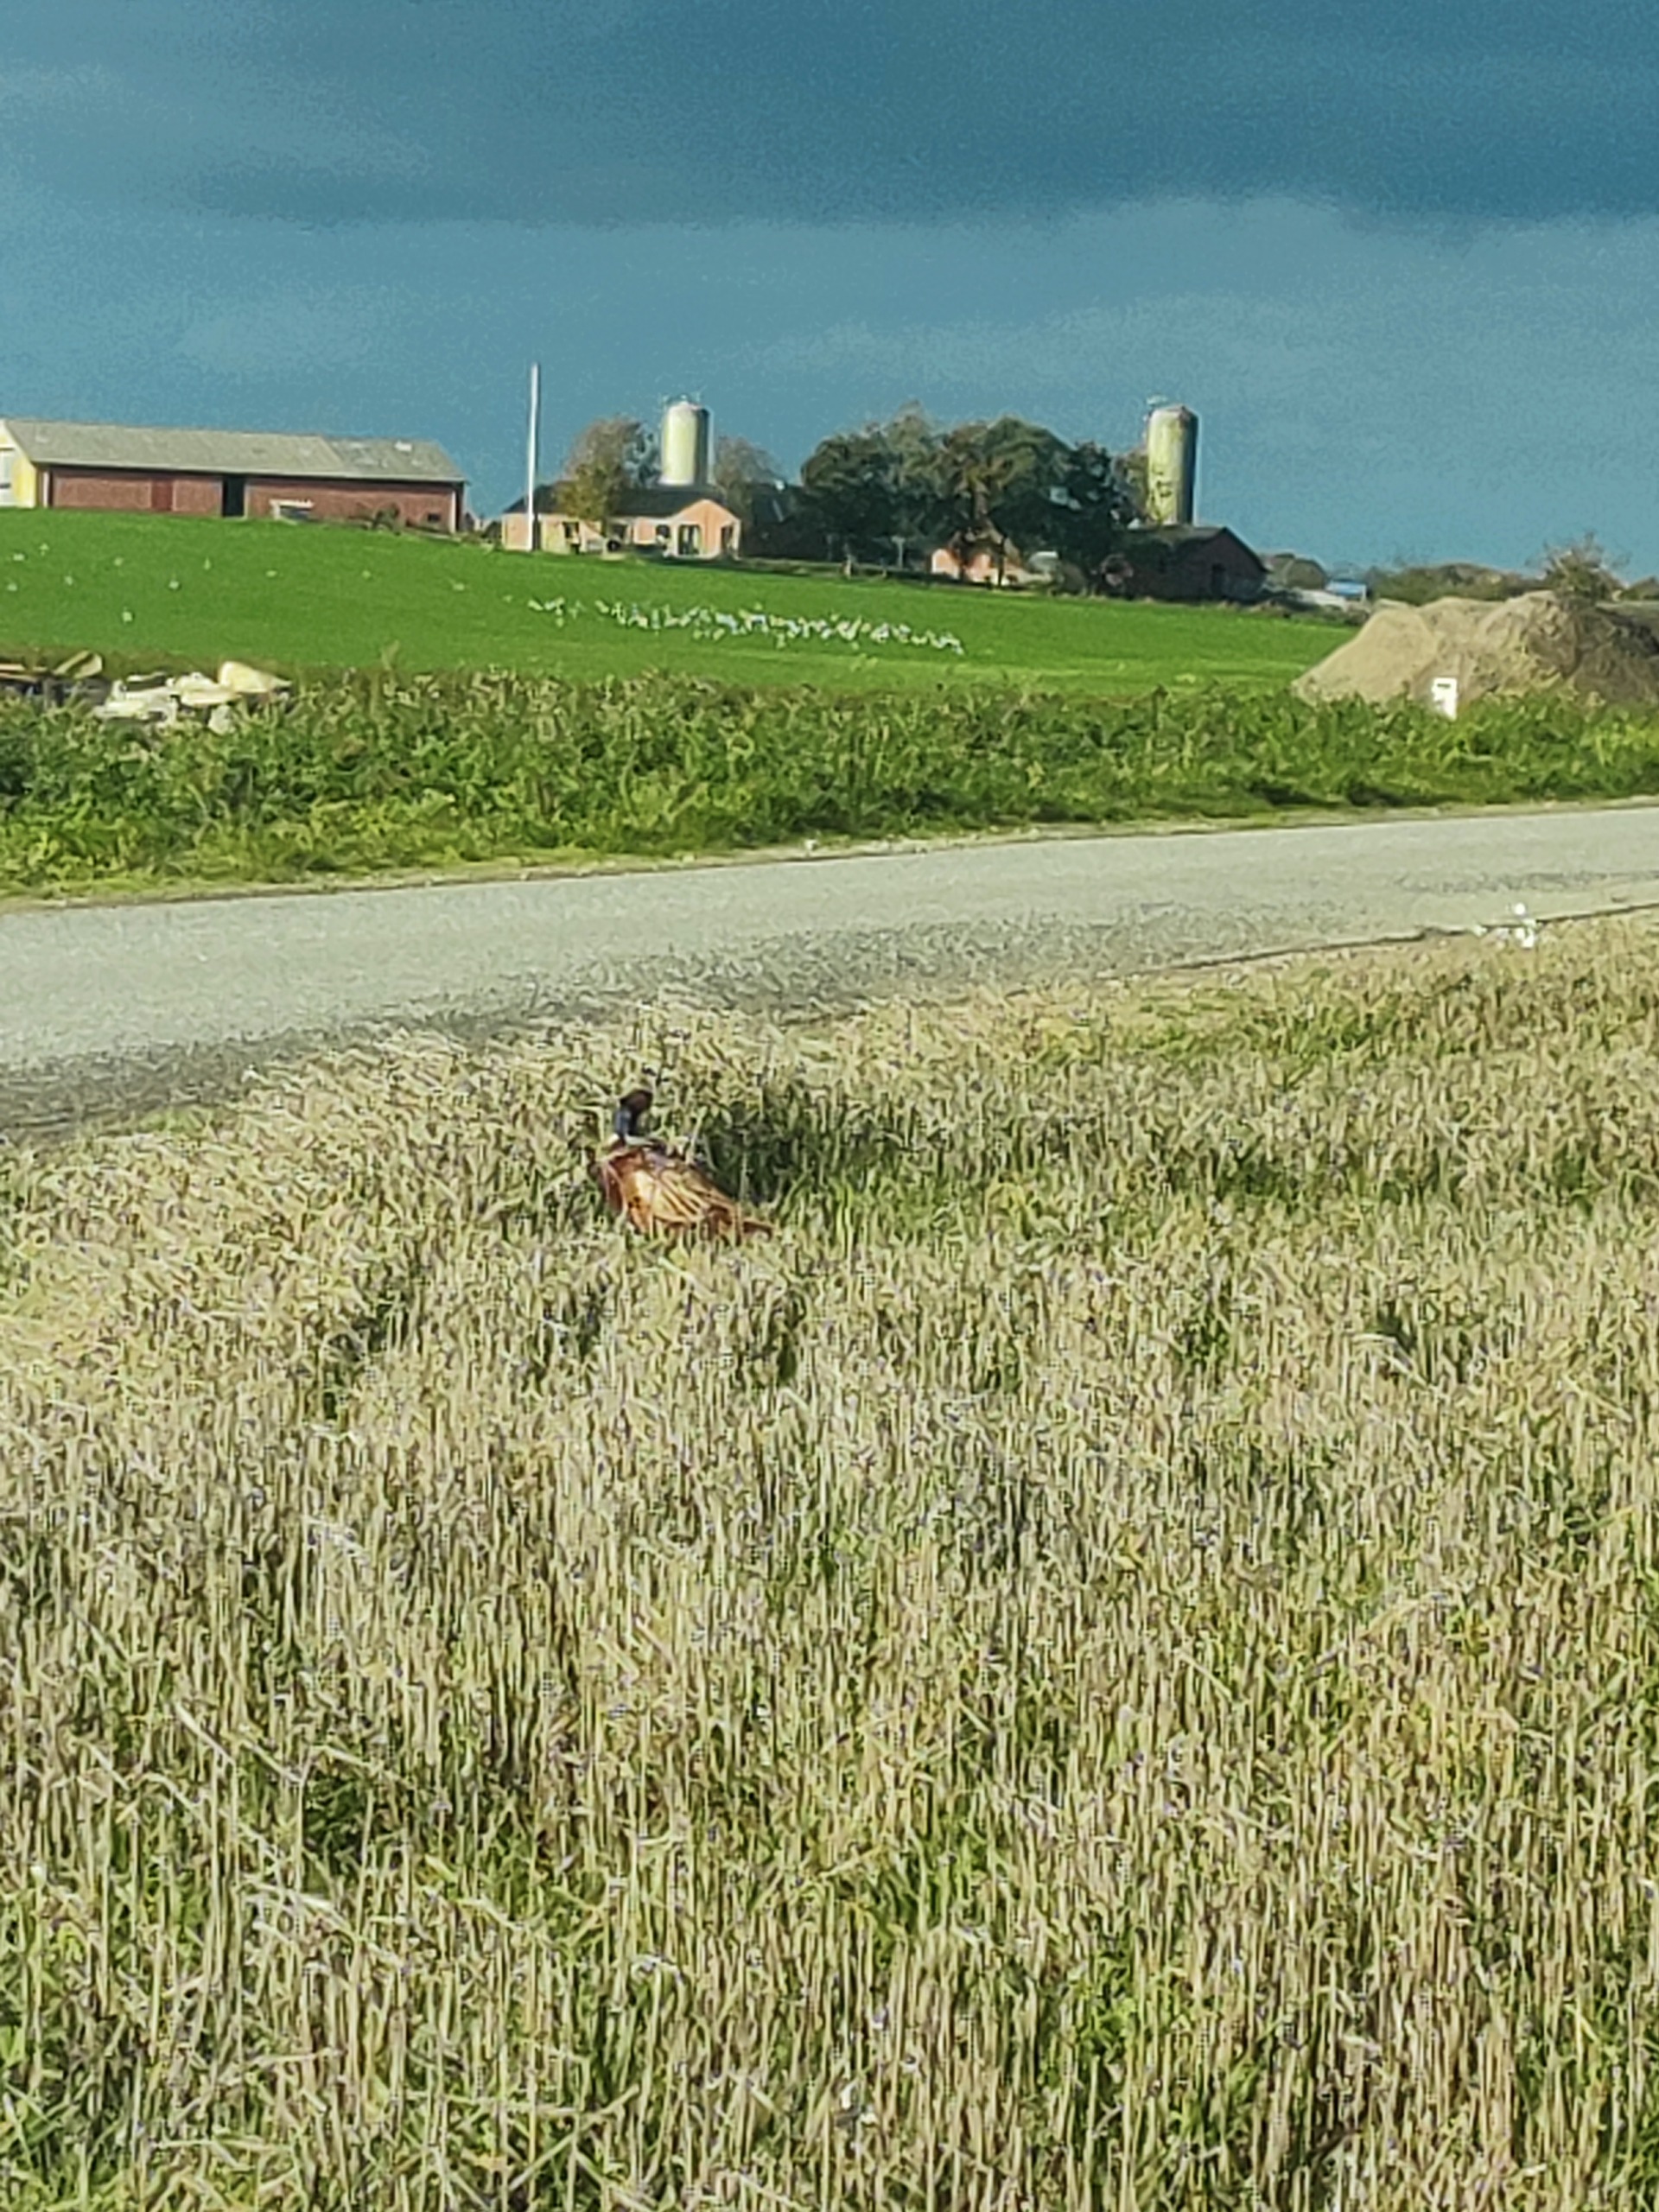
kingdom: Animalia
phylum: Chordata
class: Aves
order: Galliformes
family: Phasianidae
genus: Phasianus
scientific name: Phasianus colchicus
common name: Fasan
